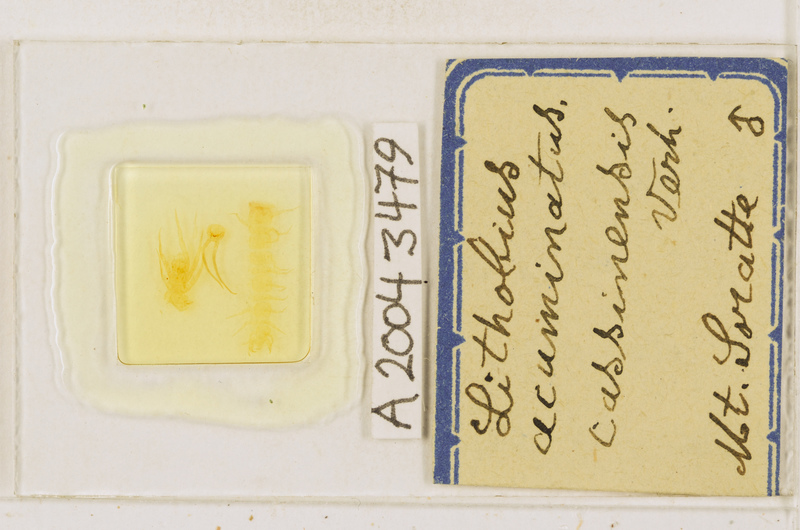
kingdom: Animalia
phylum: Arthropoda
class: Chilopoda
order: Lithobiomorpha
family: Lithobiidae
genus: Lithobius
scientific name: Lithobius acuminatus
